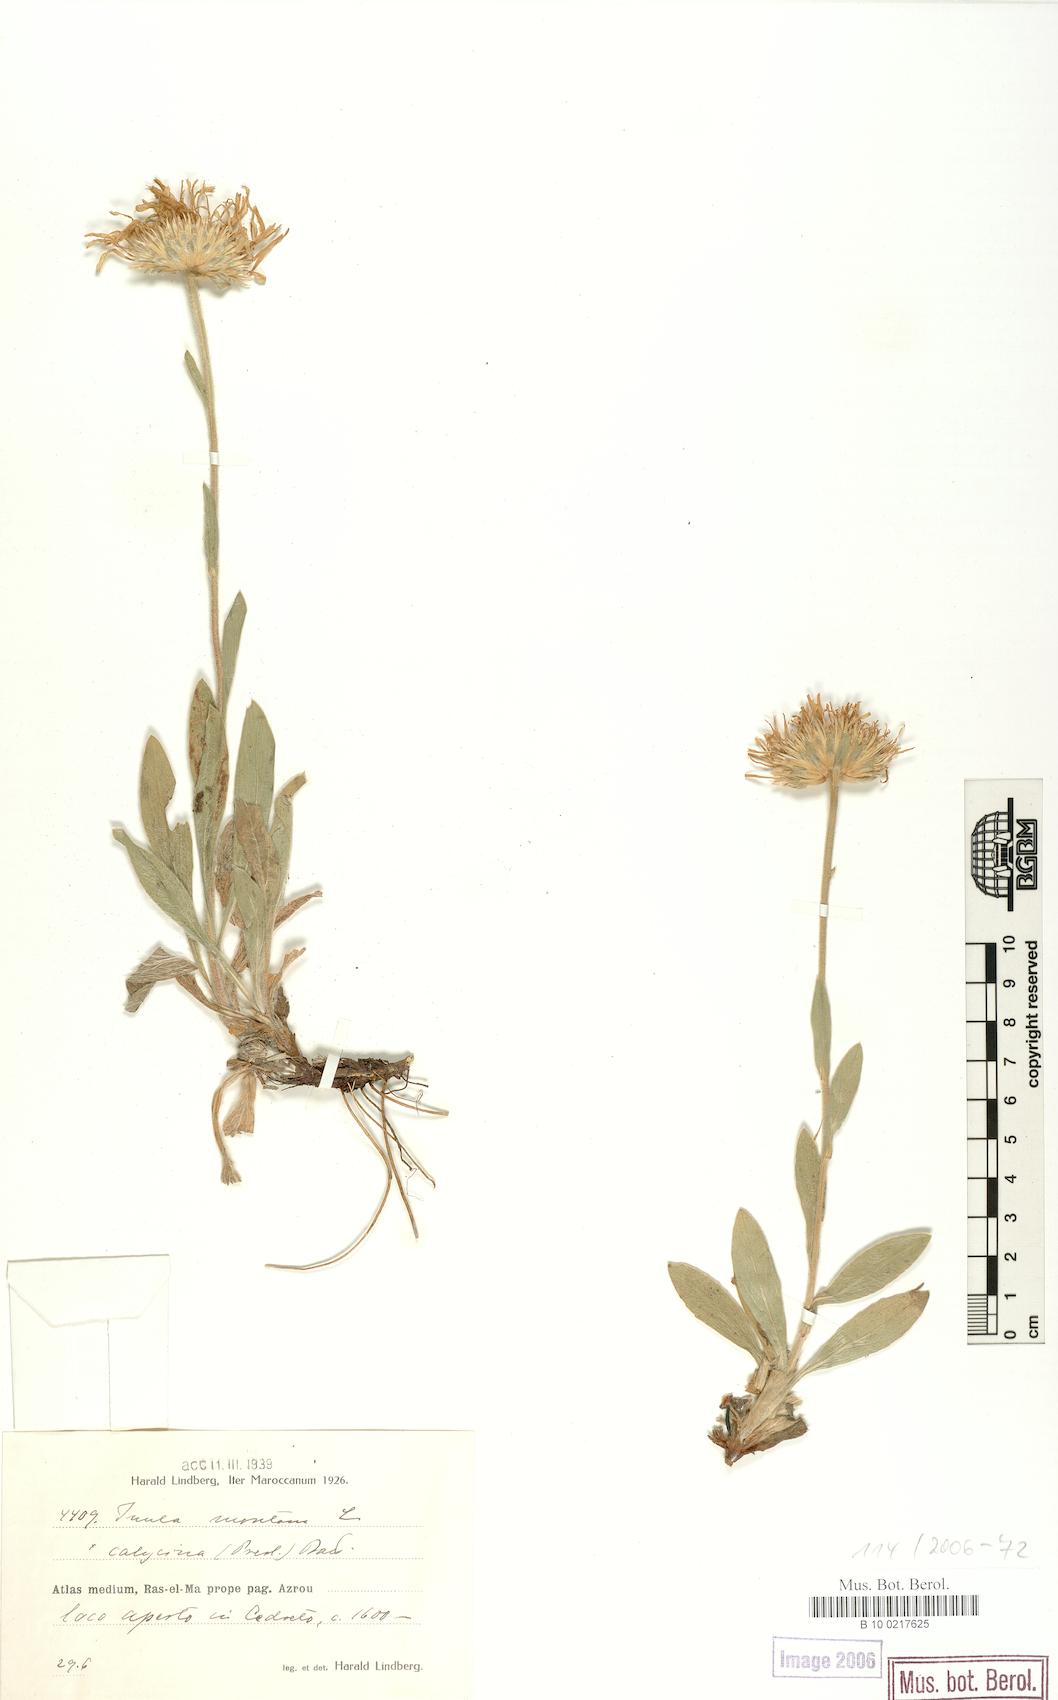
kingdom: Plantae
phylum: Tracheophyta
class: Magnoliopsida
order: Asterales
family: Asteraceae
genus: Pentanema
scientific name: Pentanema montanum
